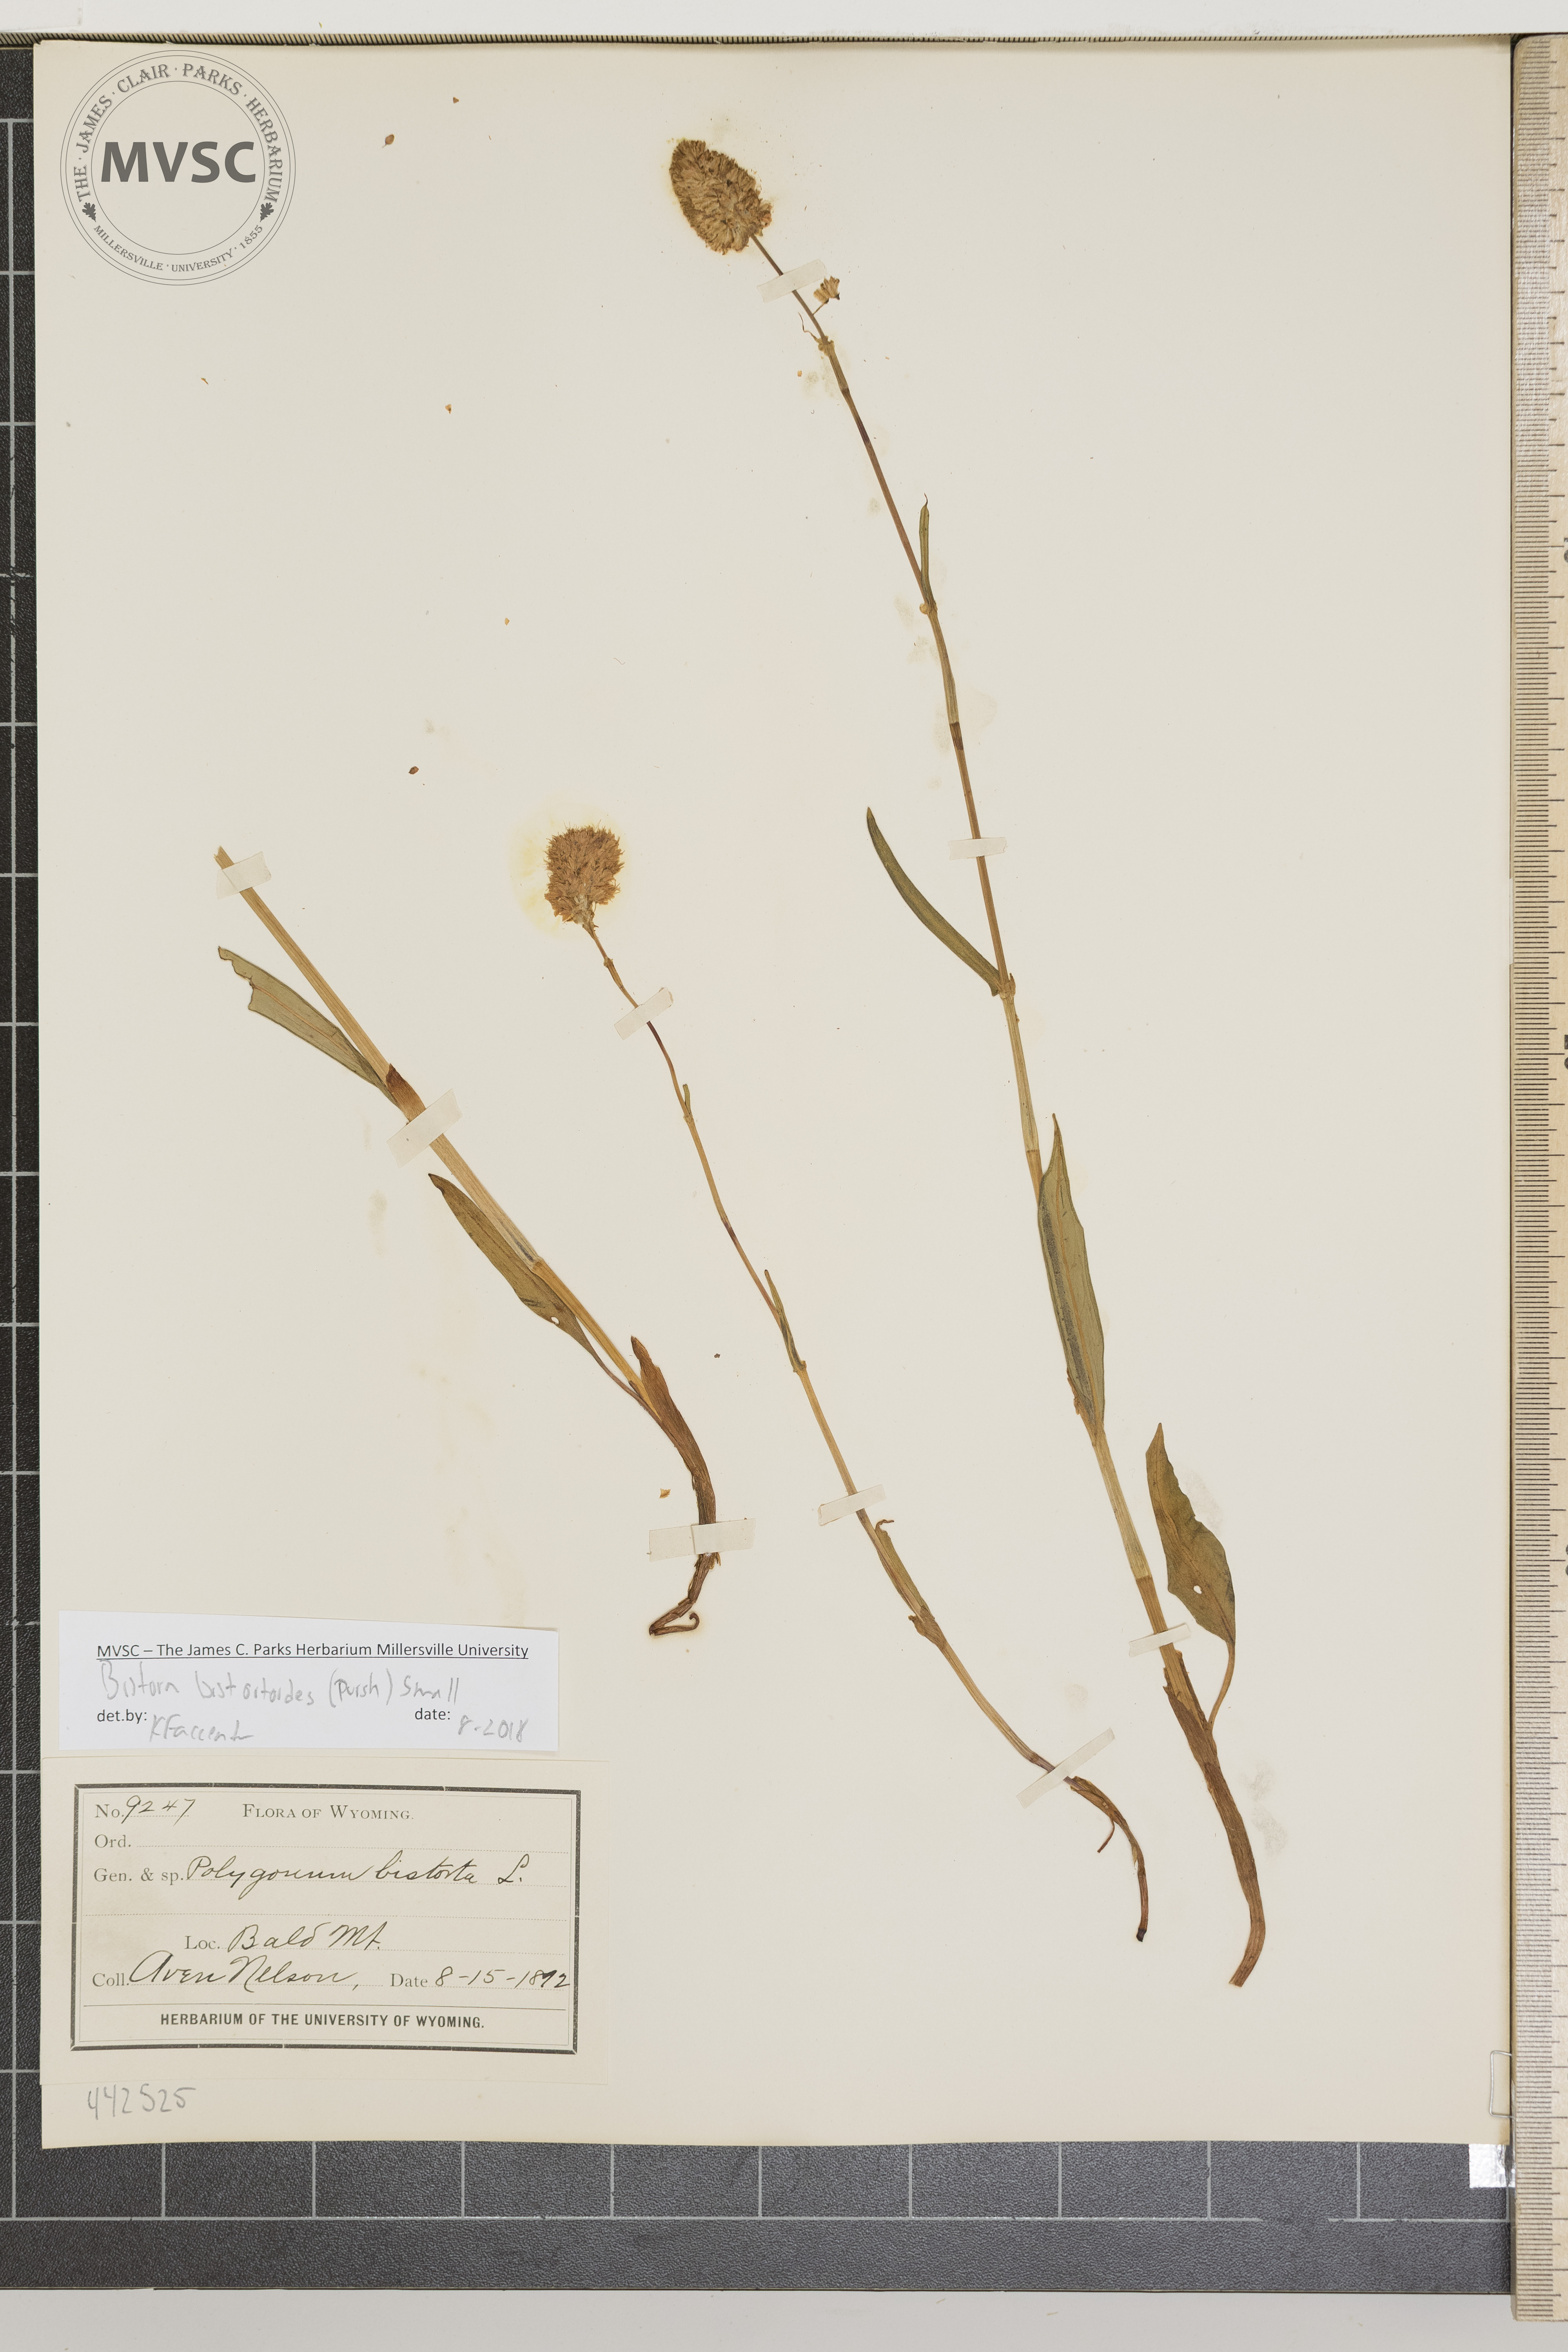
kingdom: Plantae
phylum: Tracheophyta
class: Magnoliopsida
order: Caryophyllales
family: Polygonaceae
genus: Bistorta
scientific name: Bistorta bistortoides
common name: American bistort
